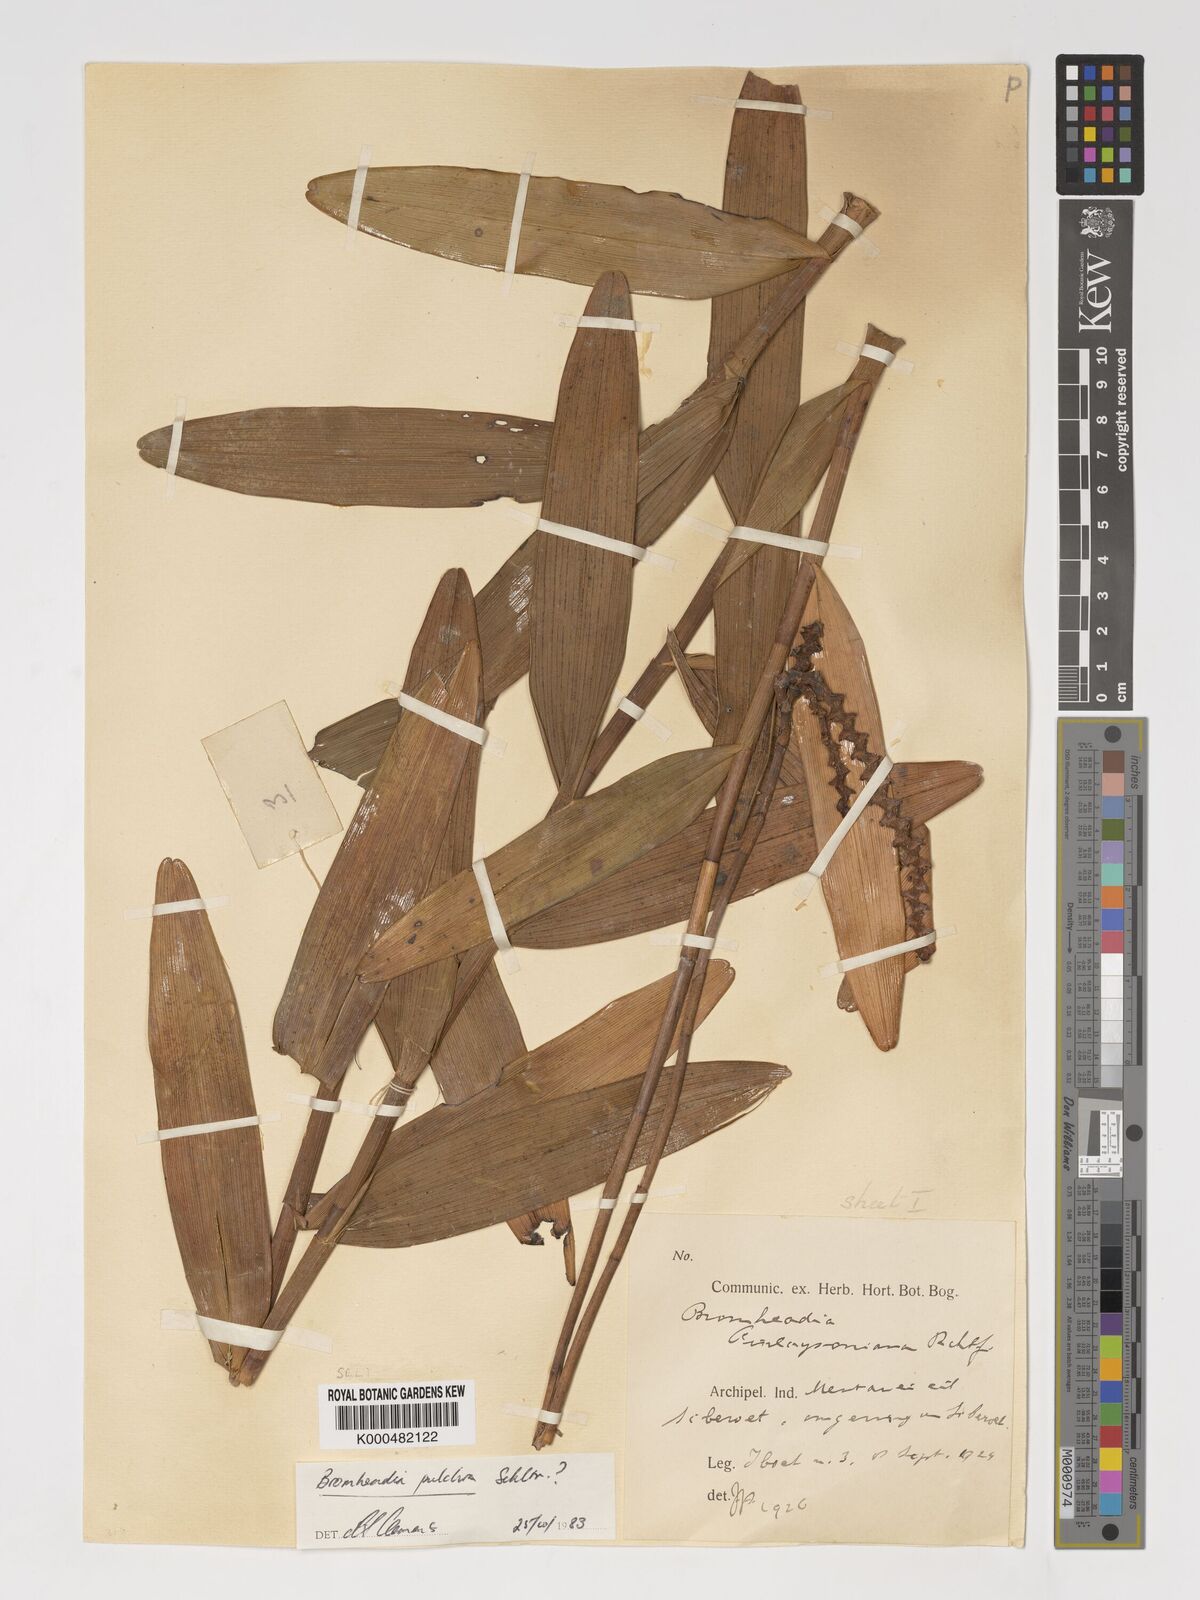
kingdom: Plantae
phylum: Tracheophyta
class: Liliopsida
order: Asparagales
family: Orchidaceae
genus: Bromheadia
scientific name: Bromheadia finlaysoniana
